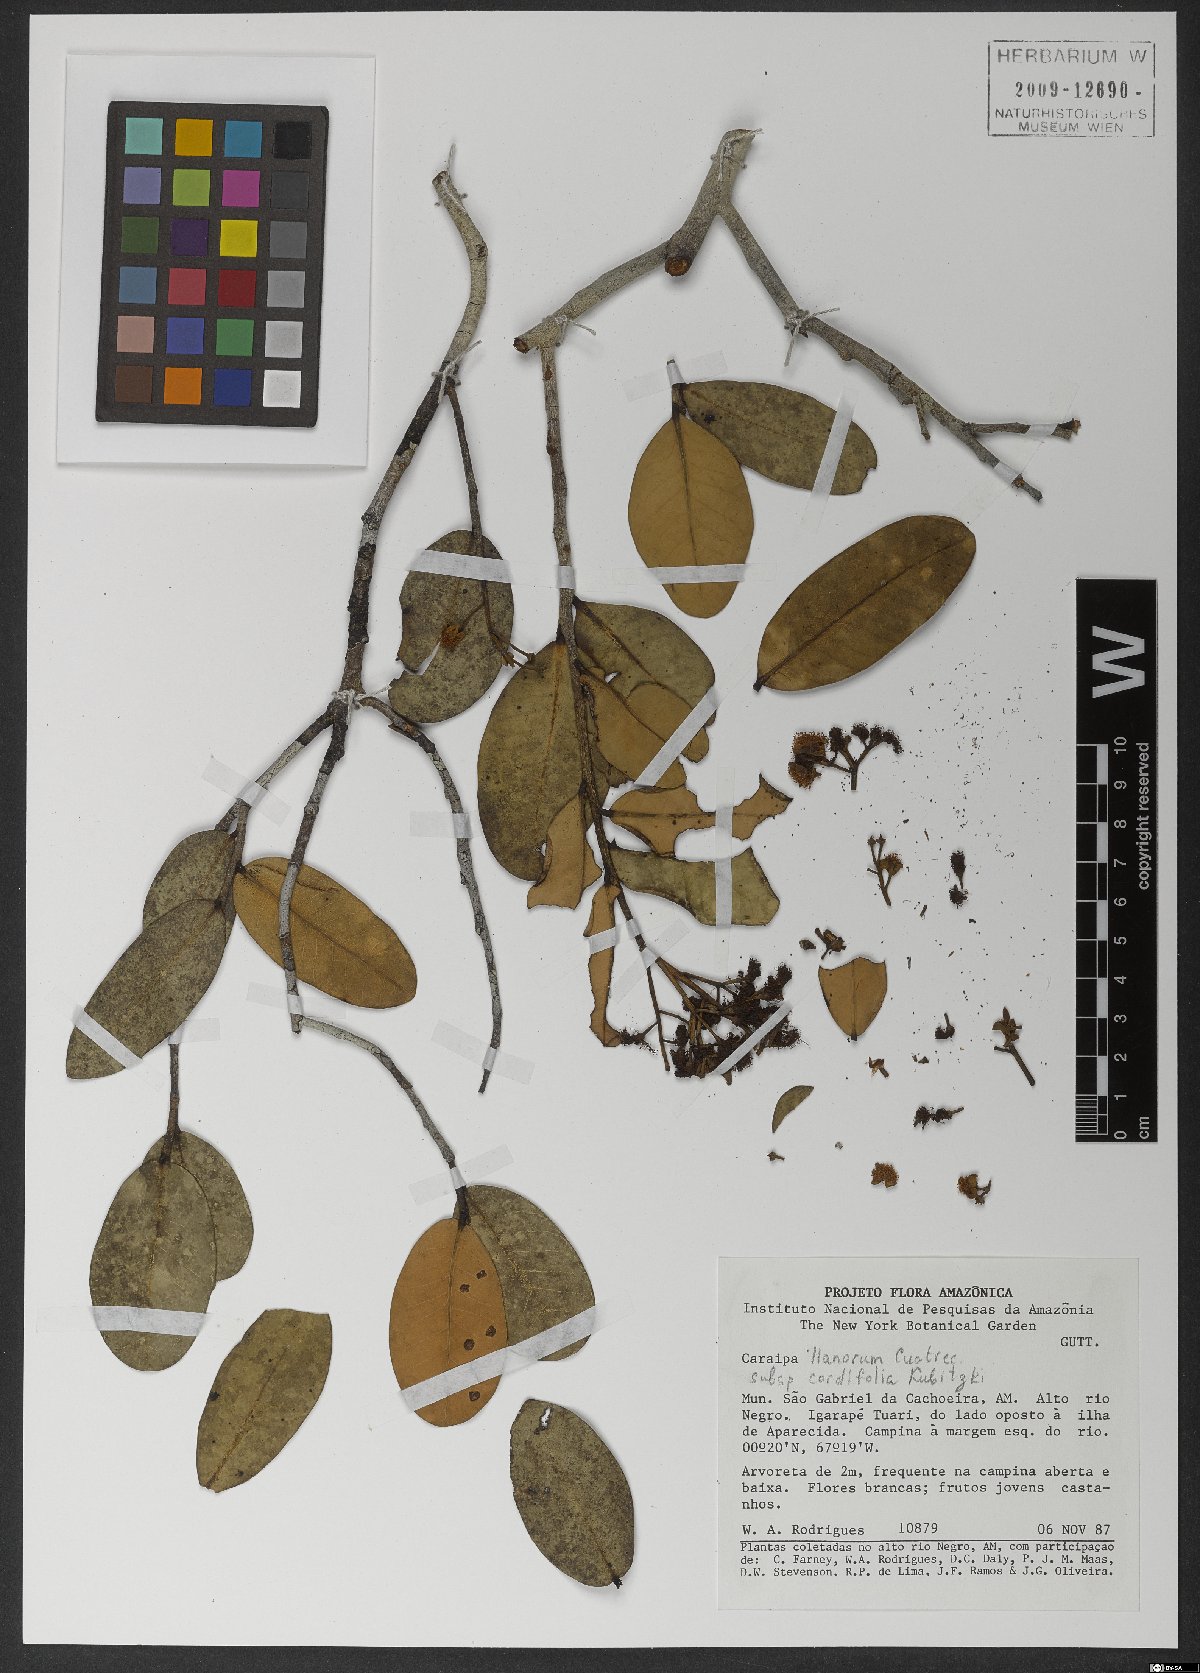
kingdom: Plantae
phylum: Tracheophyta
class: Magnoliopsida
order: Malpighiales
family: Calophyllaceae
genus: Caraipa
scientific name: Caraipa llanorum
